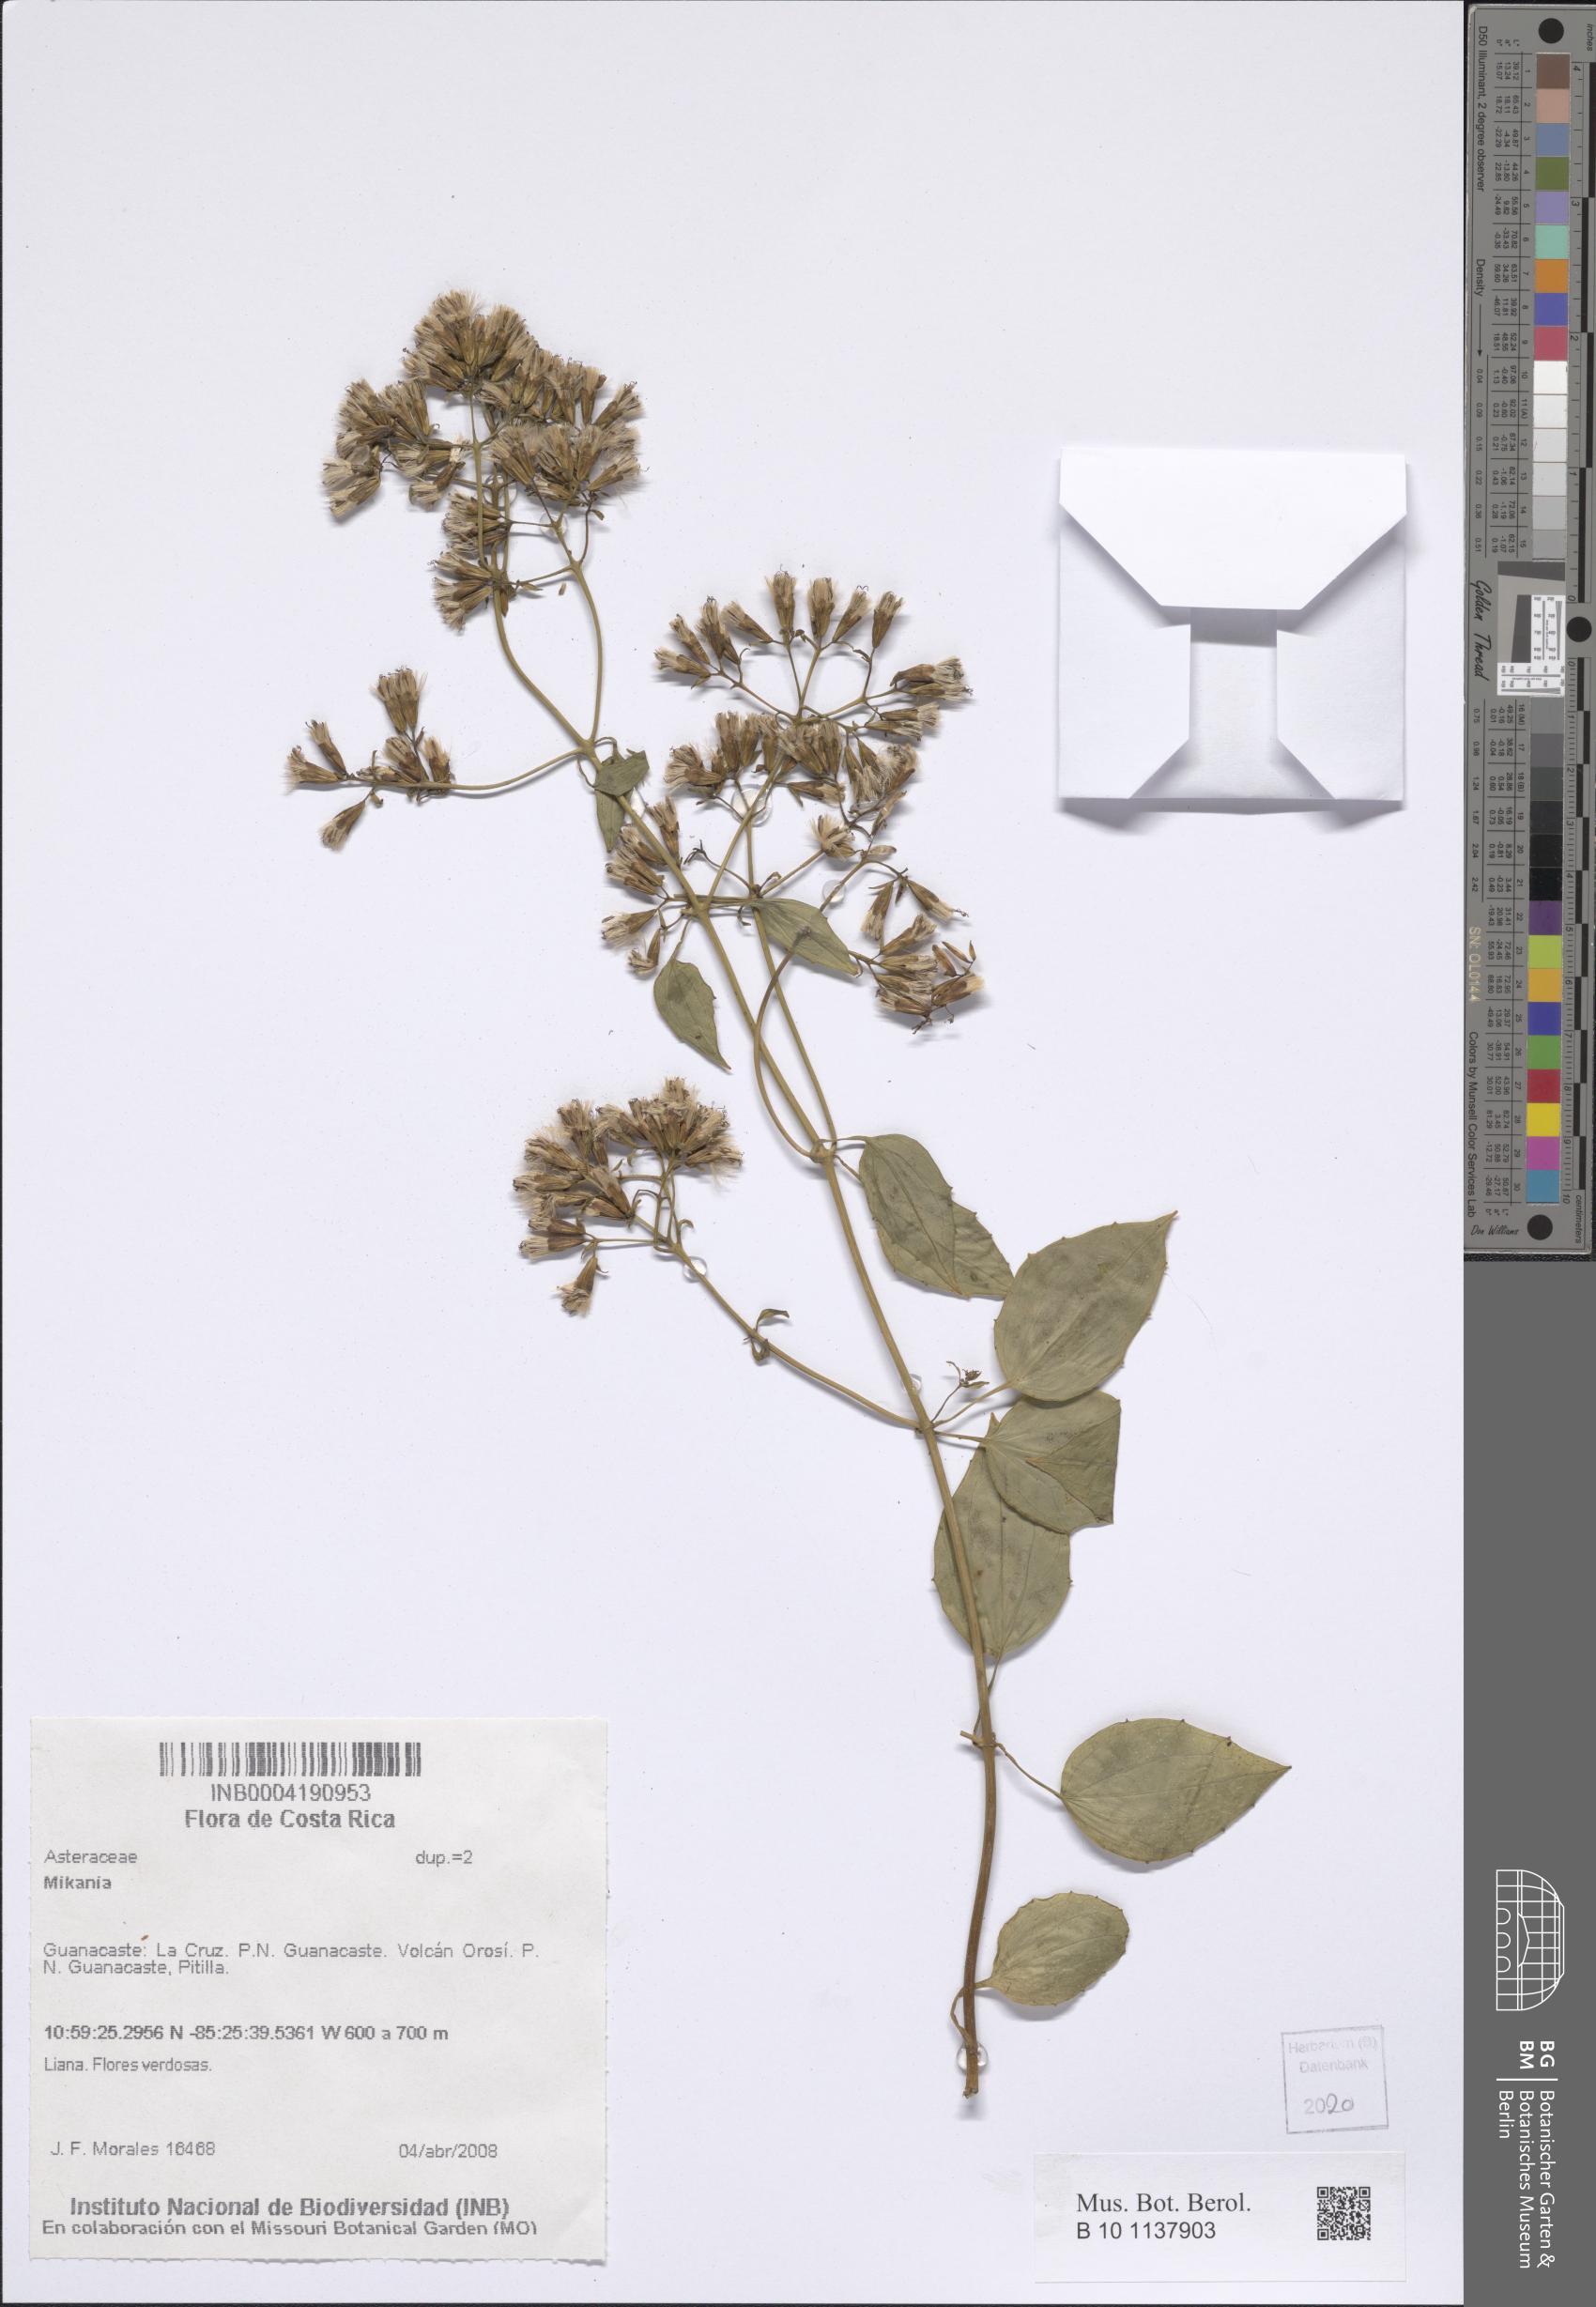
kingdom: Plantae
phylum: Tracheophyta
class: Magnoliopsida
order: Asterales
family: Asteraceae
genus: Mikania
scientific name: Mikania
